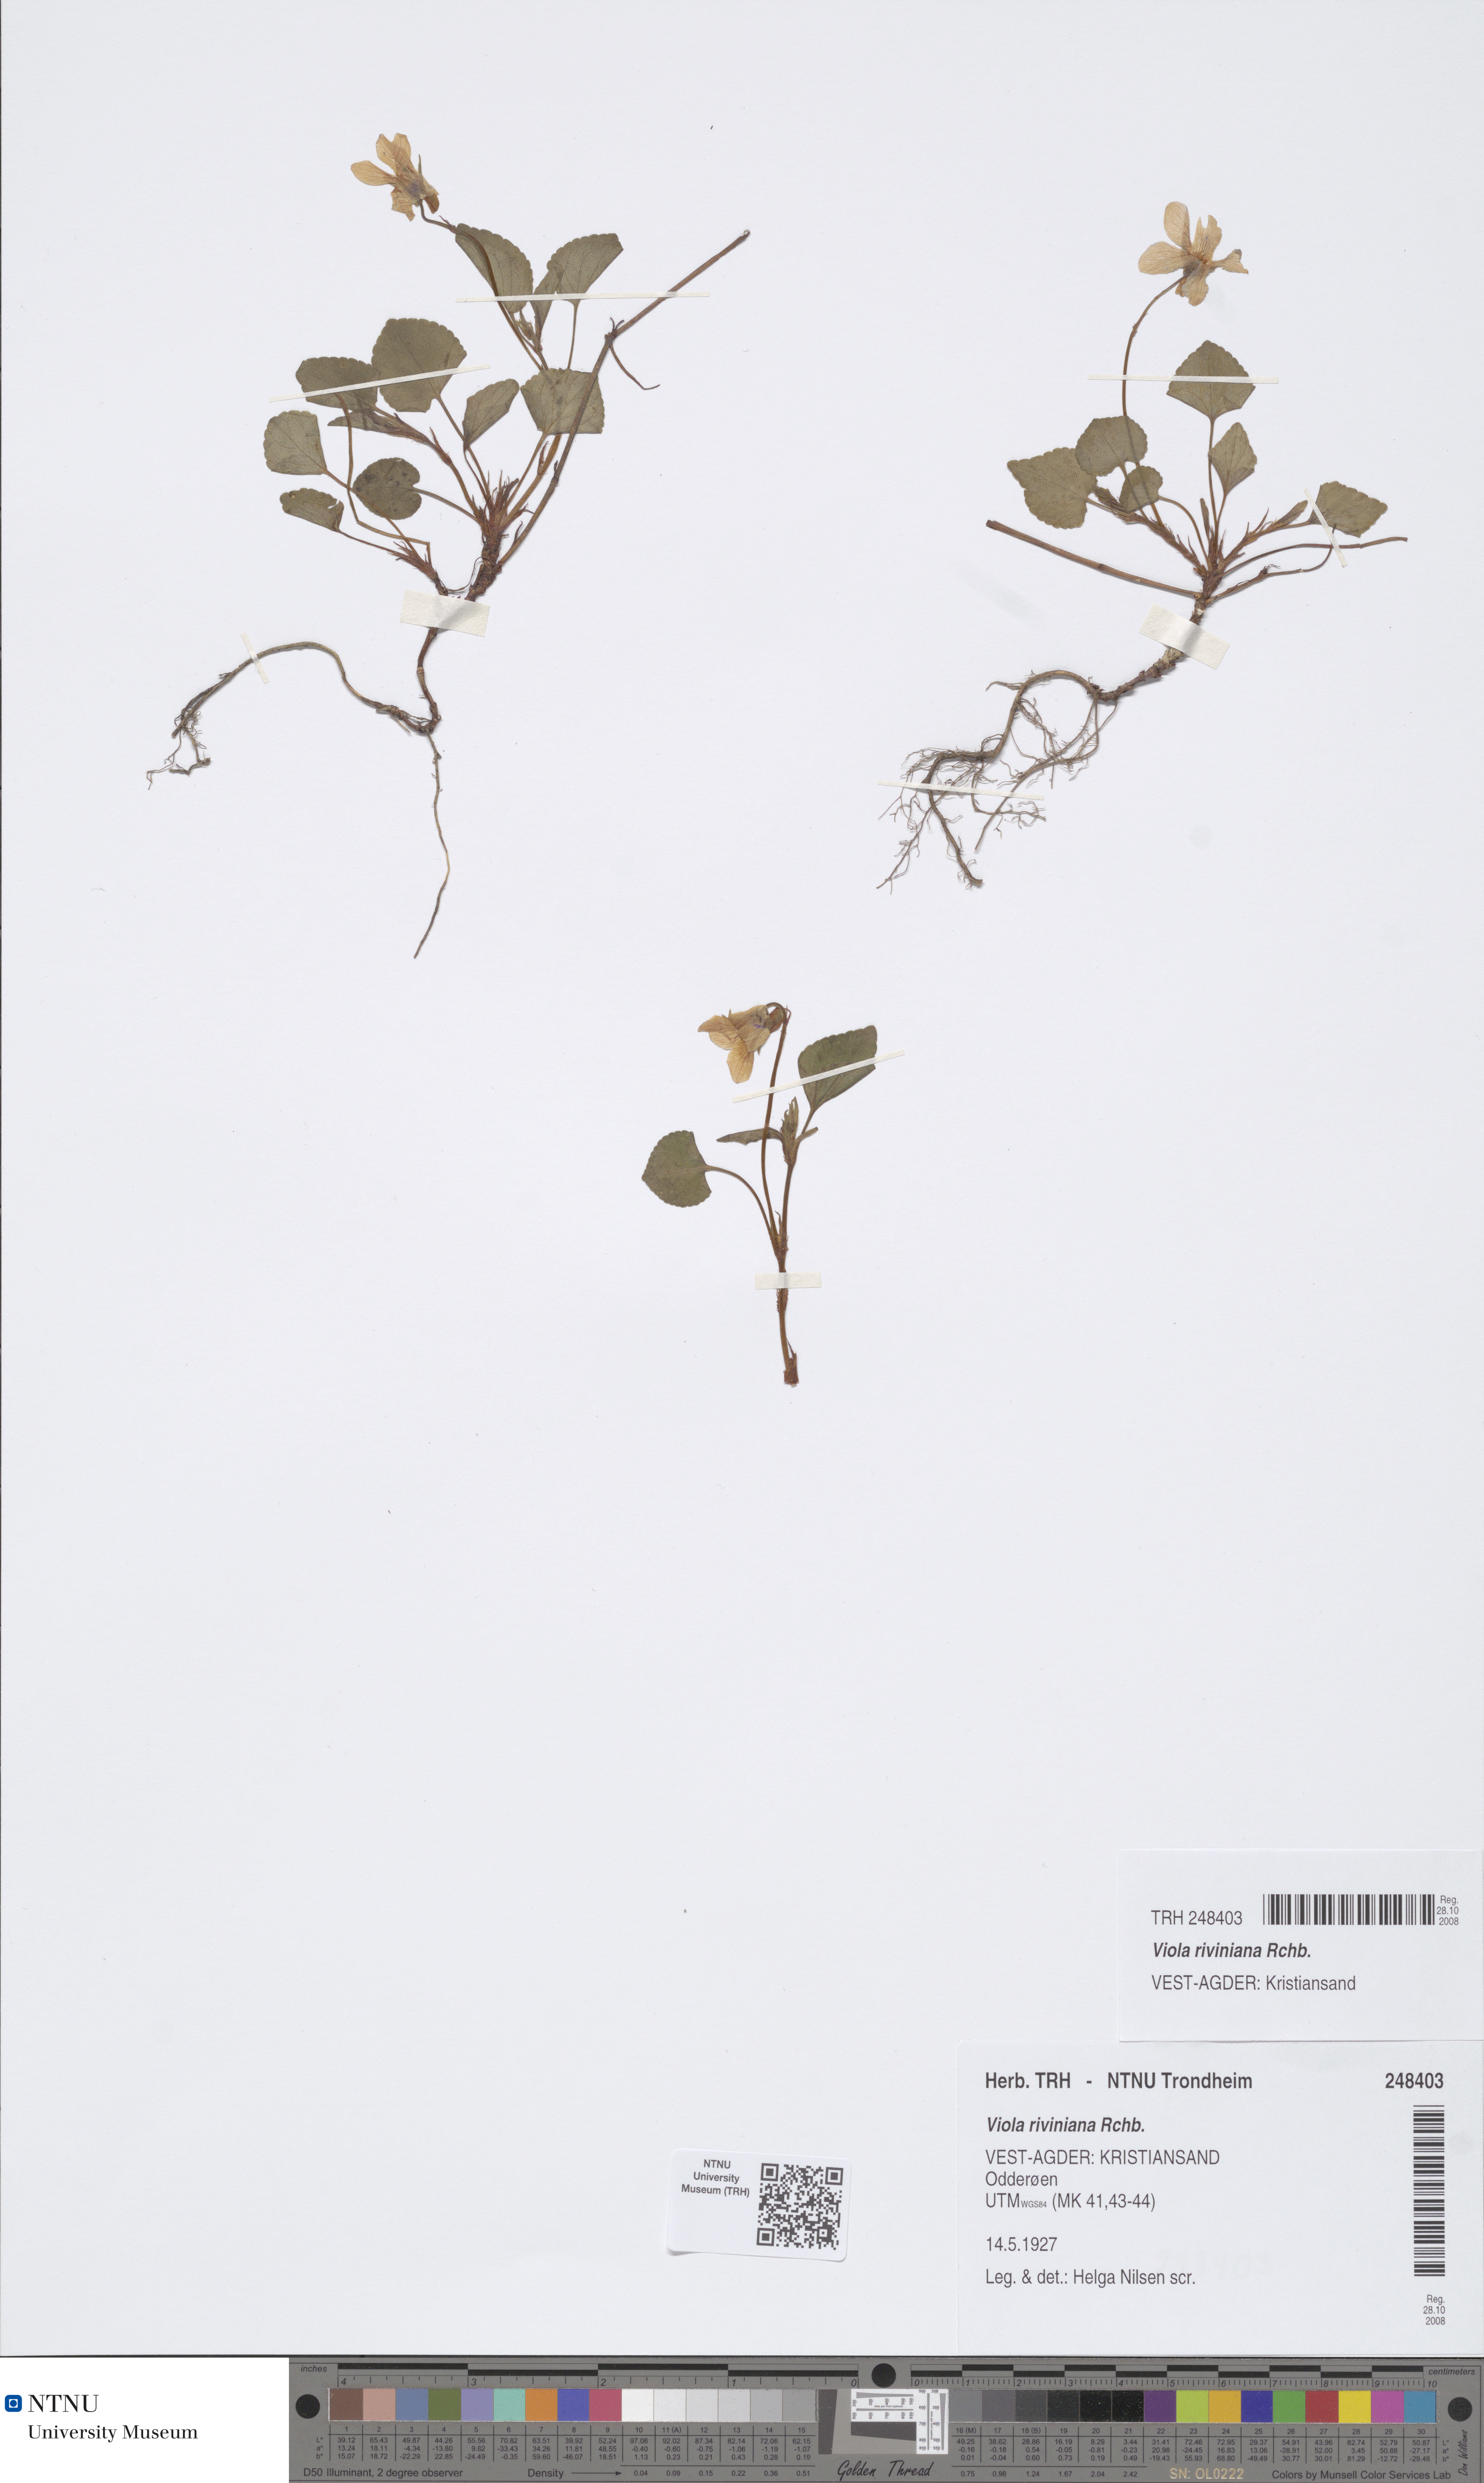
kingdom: Plantae
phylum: Tracheophyta
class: Magnoliopsida
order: Malpighiales
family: Violaceae
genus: Viola
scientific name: Viola riviniana
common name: Common dog-violet
